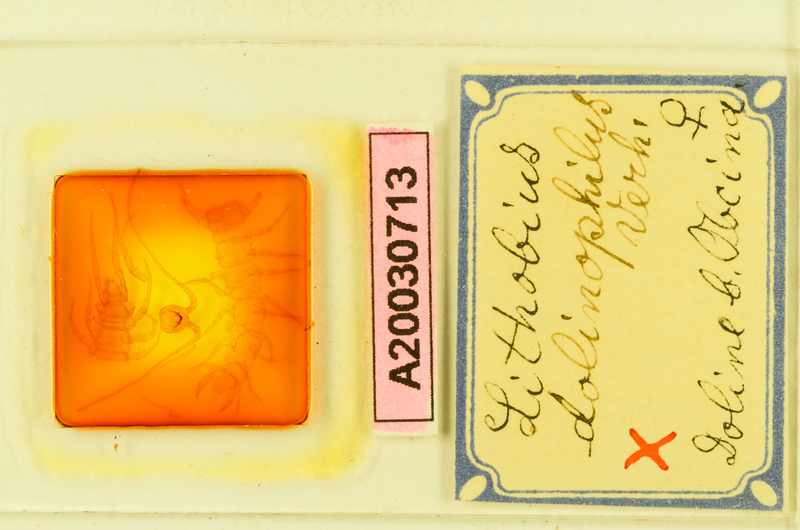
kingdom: Animalia
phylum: Arthropoda
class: Chilopoda
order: Lithobiomorpha
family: Lithobiidae
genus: Lithobius
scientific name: Lithobius mutabilis
